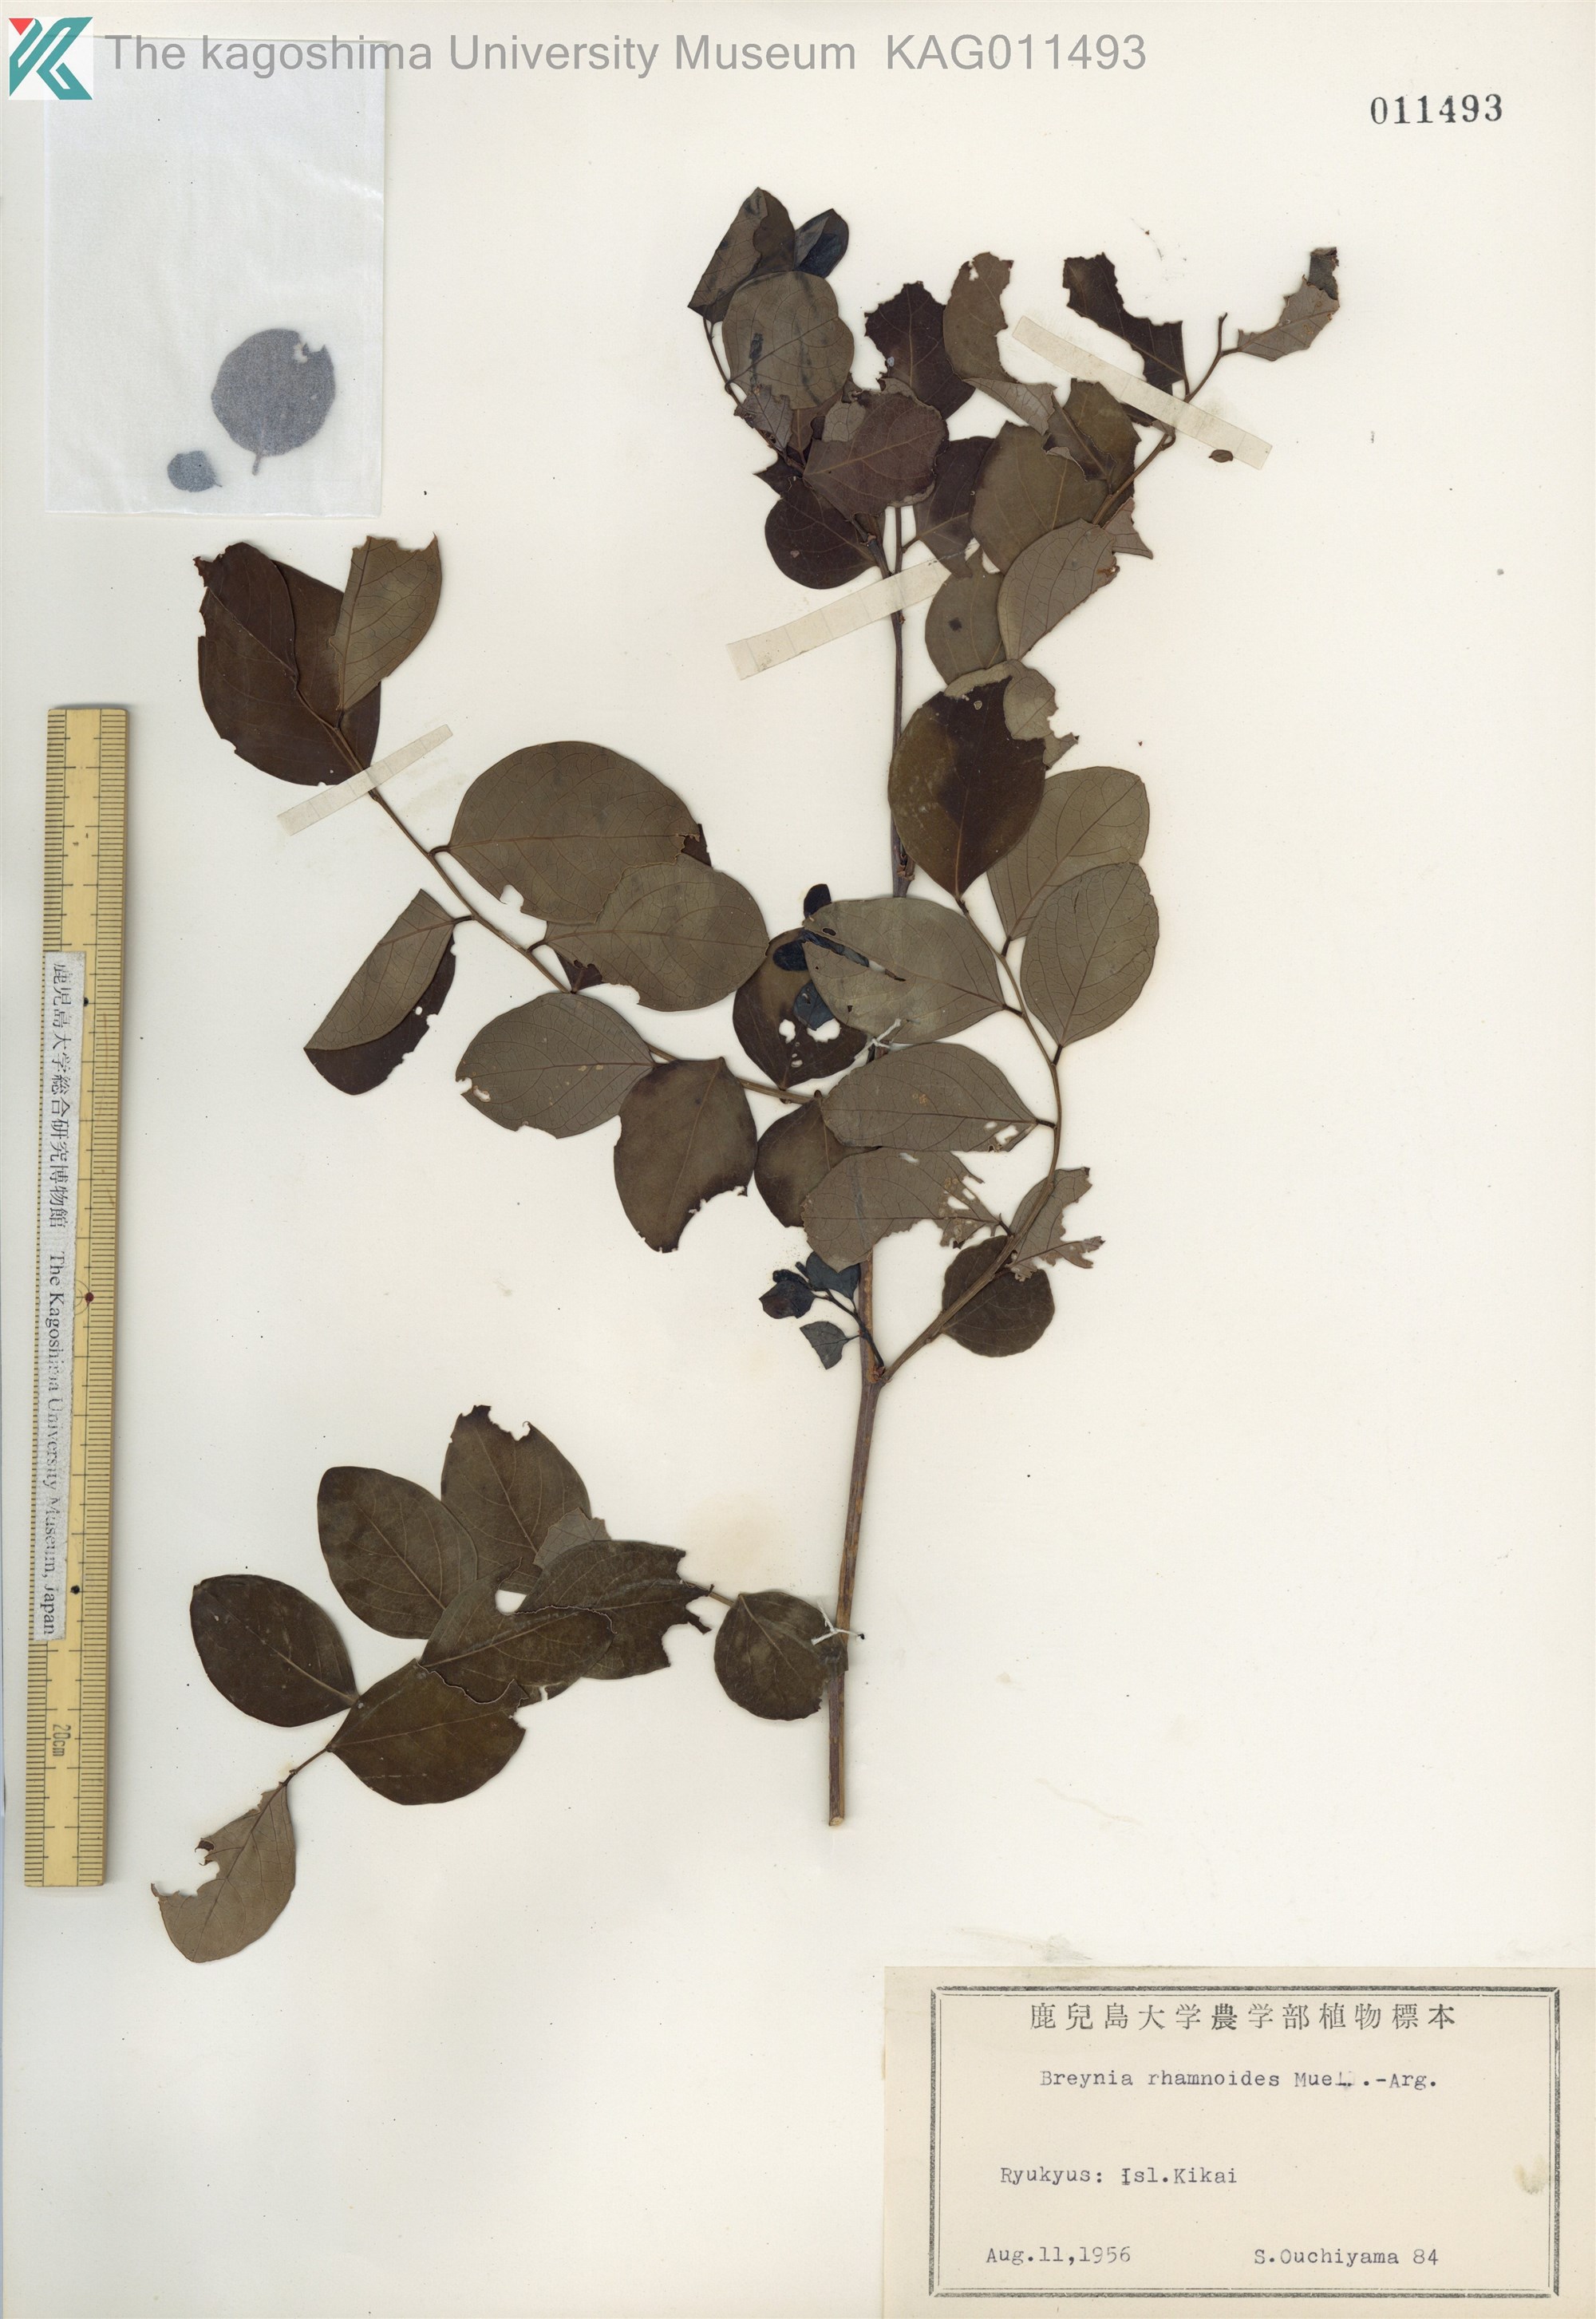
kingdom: Plantae
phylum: Tracheophyta
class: Magnoliopsida
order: Malpighiales
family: Phyllanthaceae
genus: Breynia
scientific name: Breynia vitis-idaea
